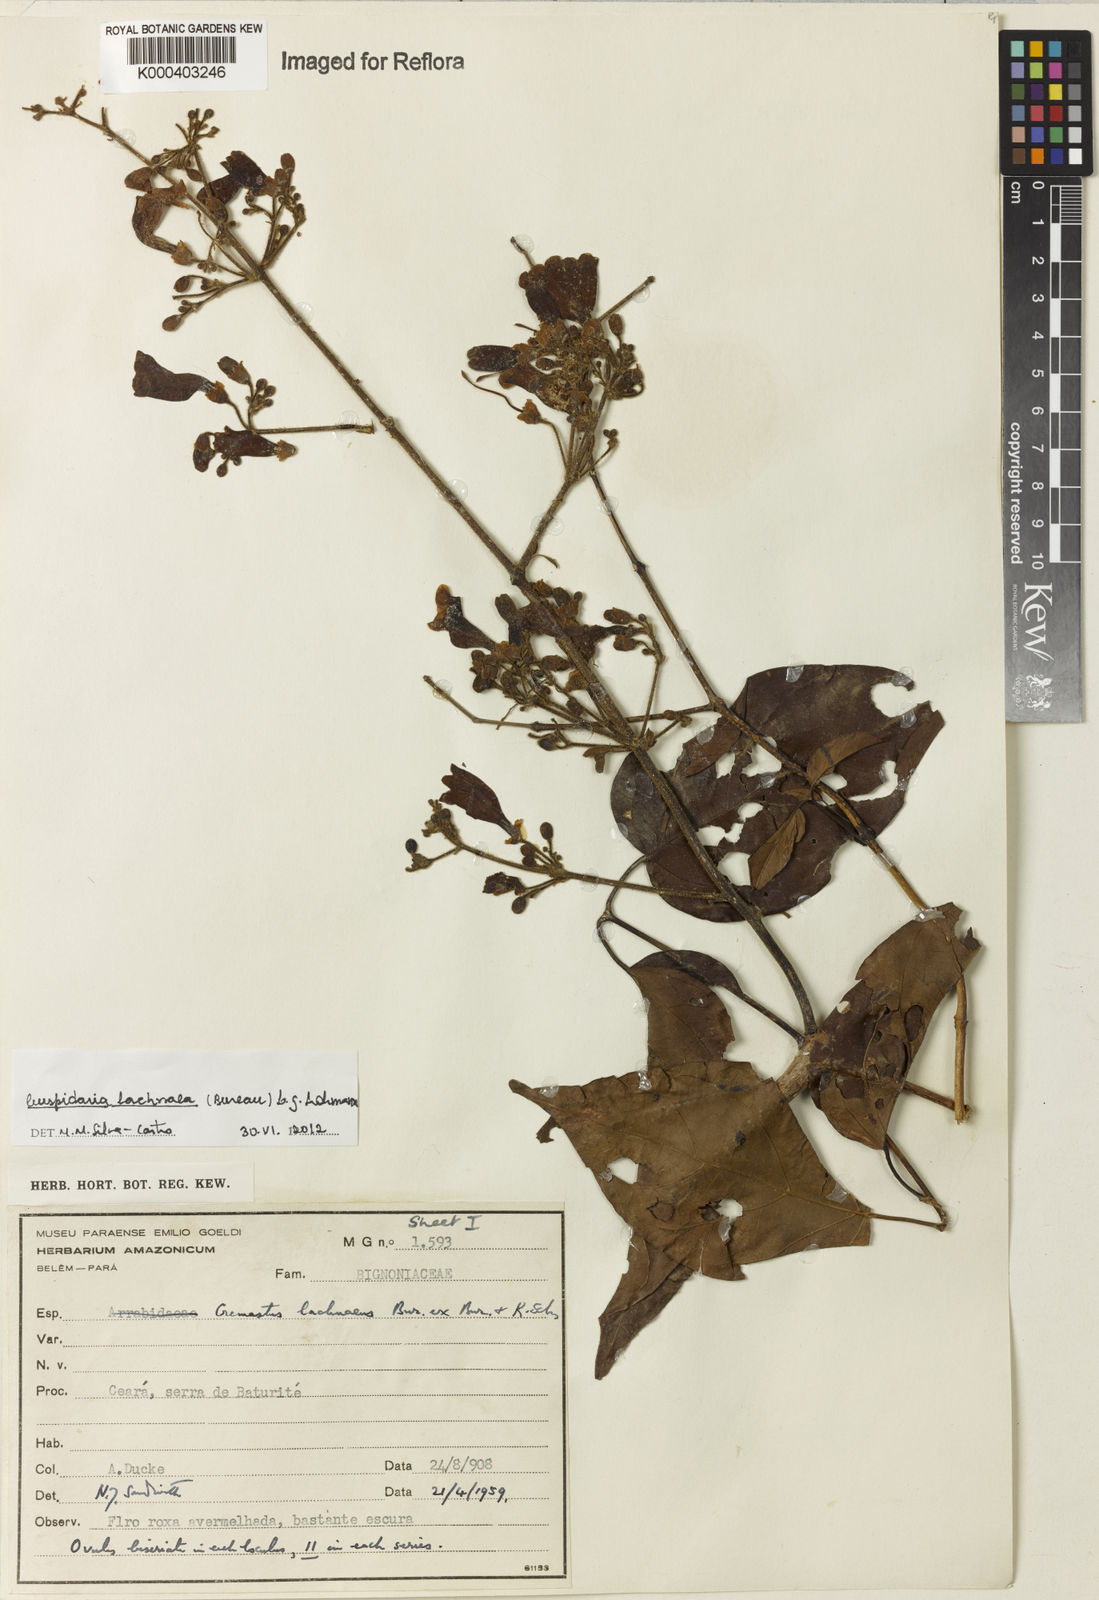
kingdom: Plantae
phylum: Tracheophyta
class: Magnoliopsida
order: Lamiales
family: Bignoniaceae
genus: Cuspidaria
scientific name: Cuspidaria lachnaea
